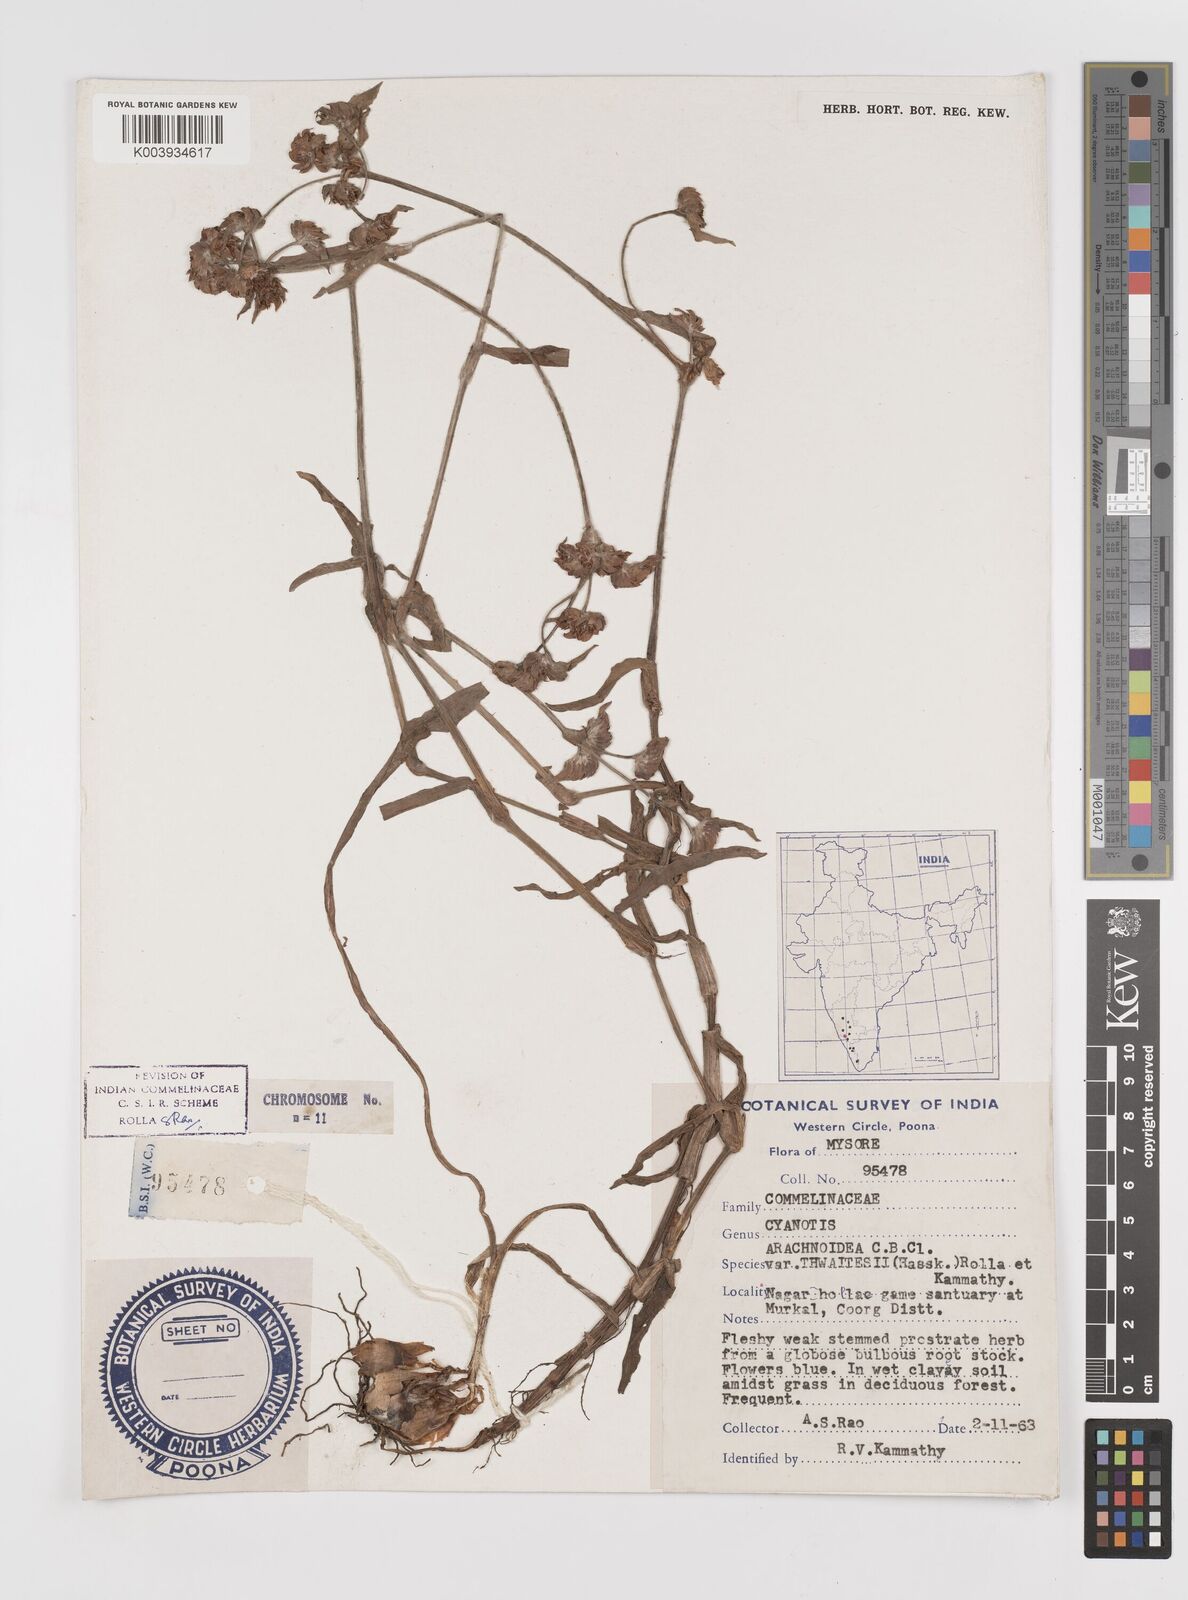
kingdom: Plantae
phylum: Tracheophyta
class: Liliopsida
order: Commelinales
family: Commelinaceae
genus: Cyanotis
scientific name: Cyanotis arachnoidea
